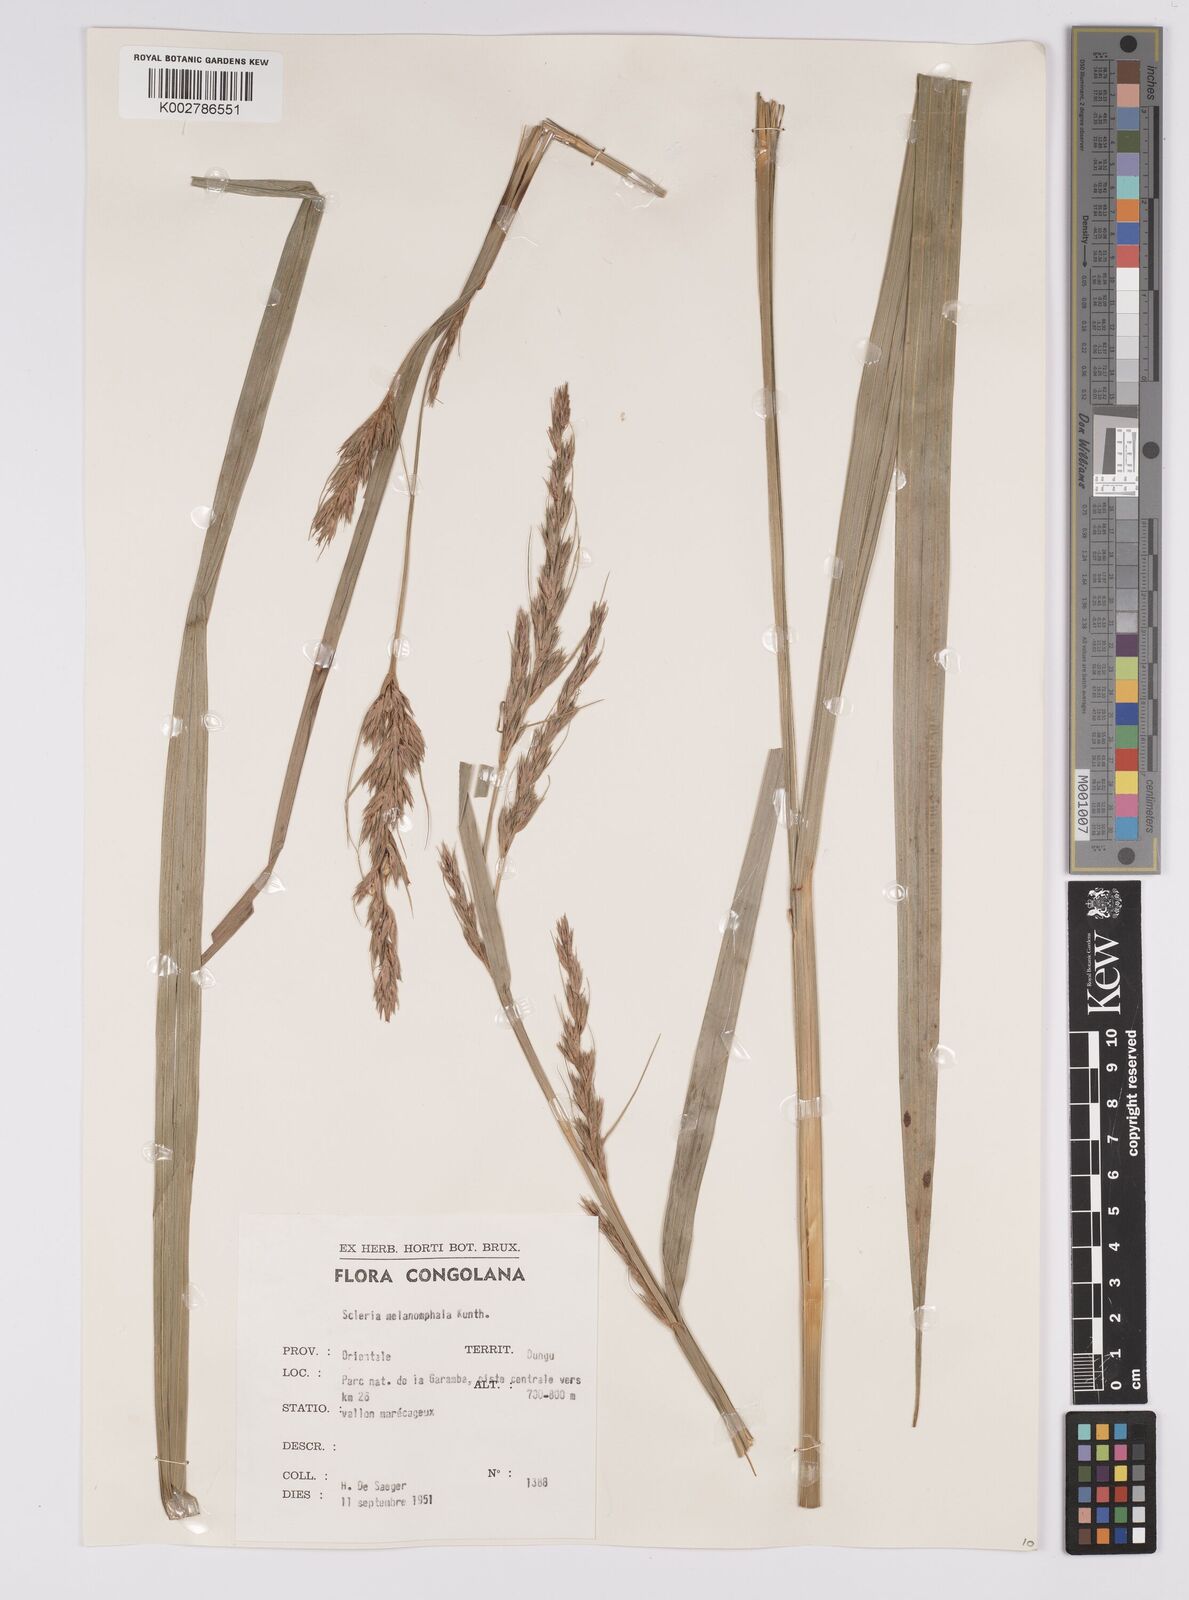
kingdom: Plantae
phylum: Tracheophyta
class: Liliopsida
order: Poales
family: Cyperaceae
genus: Scleria
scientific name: Scleria melanomphala
